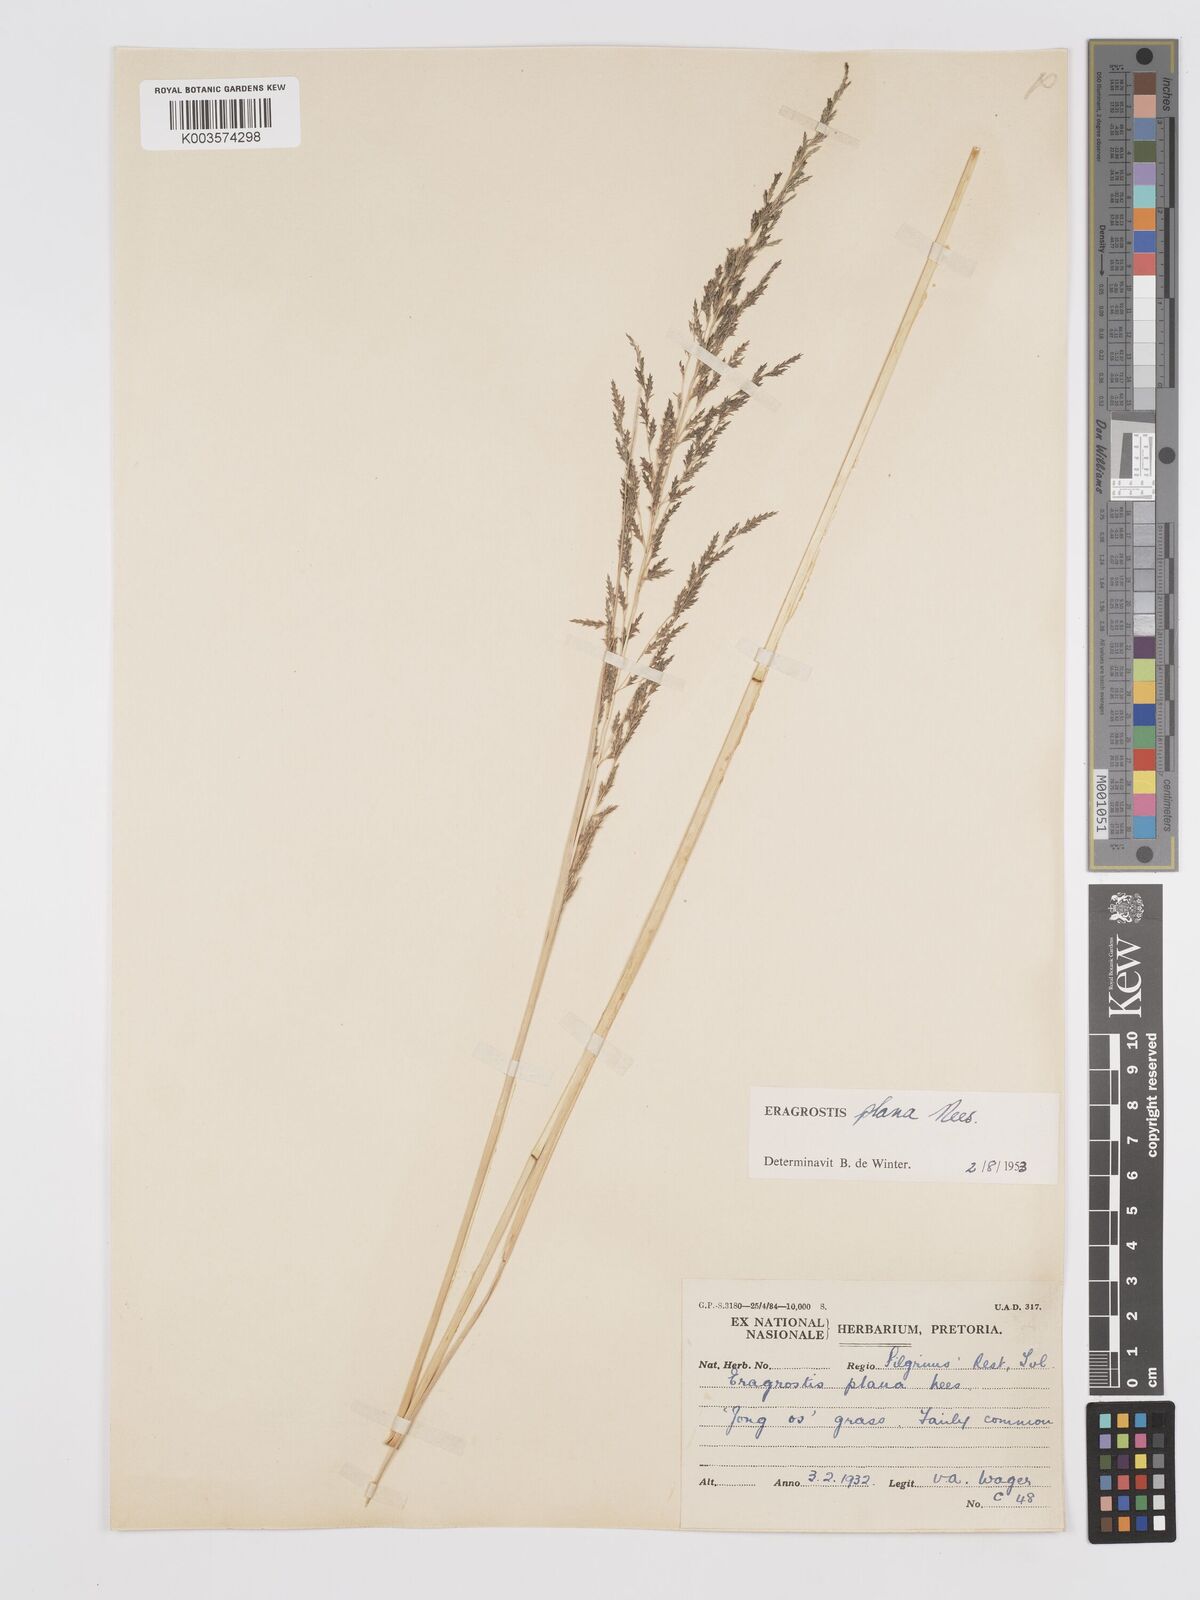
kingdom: Plantae
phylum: Tracheophyta
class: Liliopsida
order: Poales
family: Poaceae
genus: Eragrostis
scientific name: Eragrostis plana
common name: South african lovegrass
